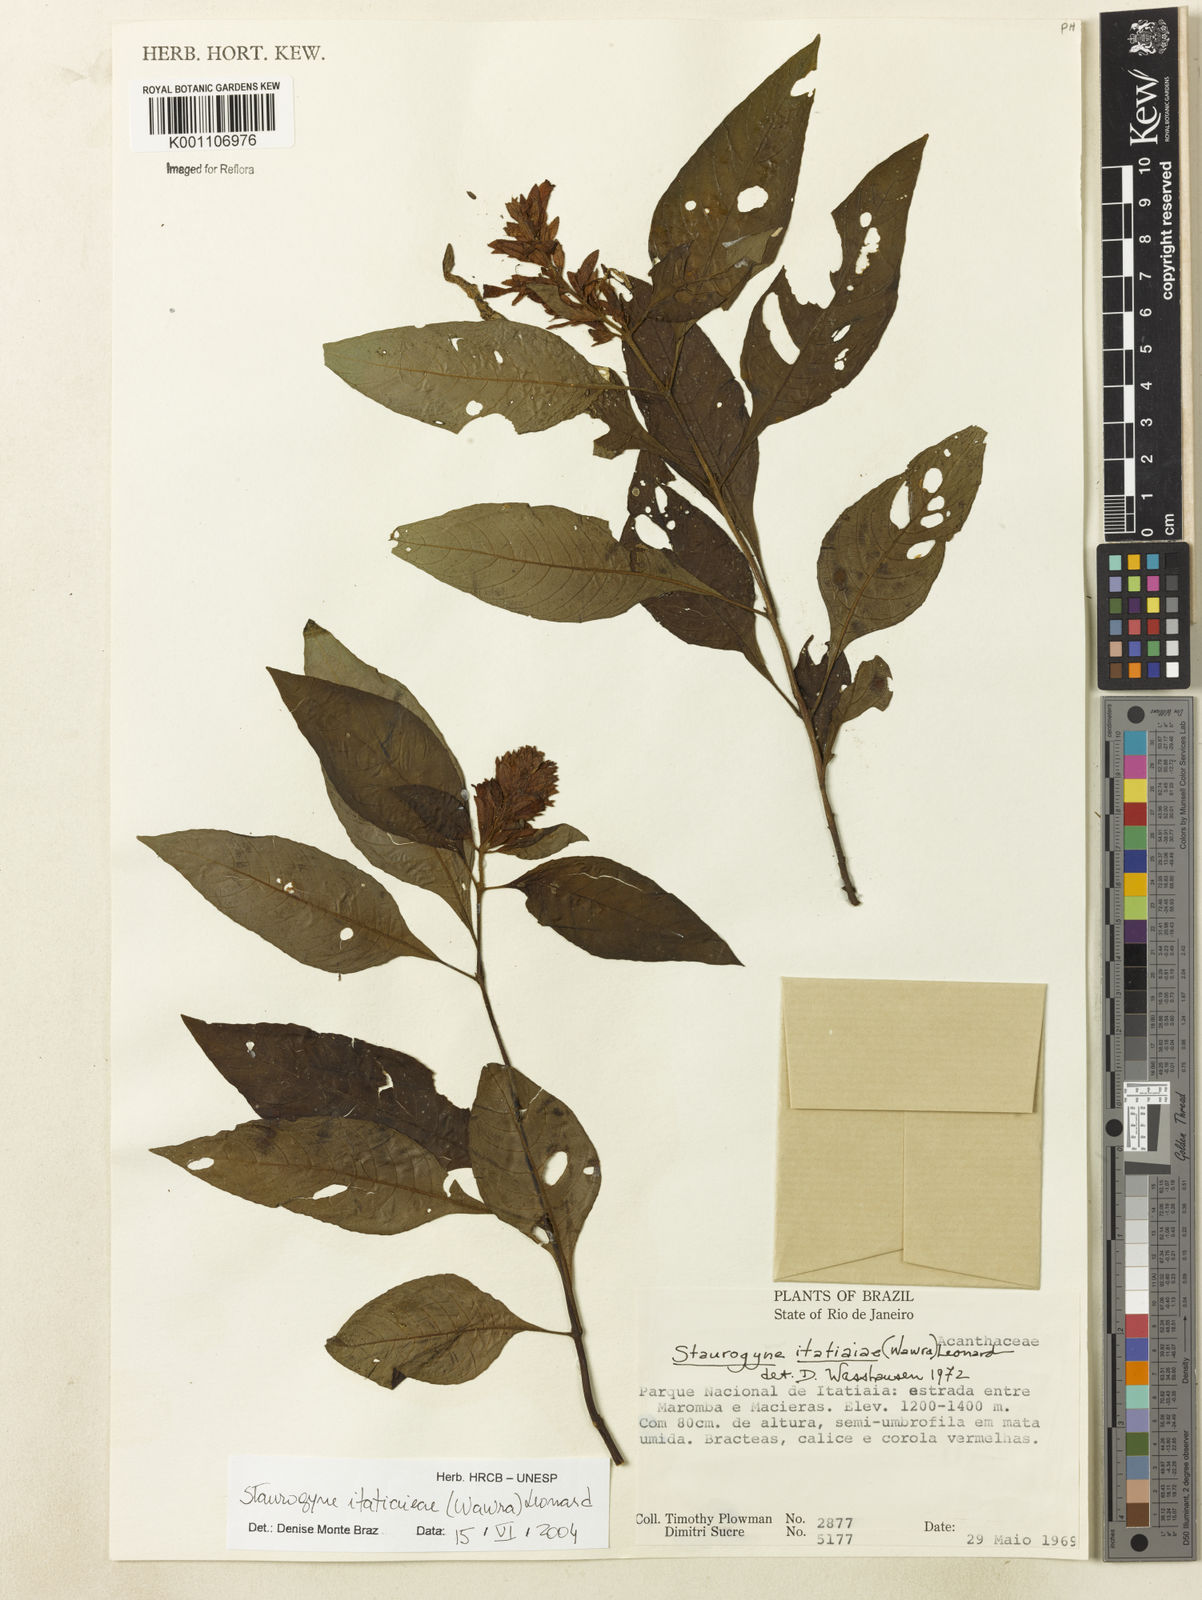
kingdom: Plantae
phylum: Tracheophyta
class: Magnoliopsida
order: Lamiales
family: Acanthaceae
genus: Staurogyne
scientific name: Staurogyne itatiaiae
